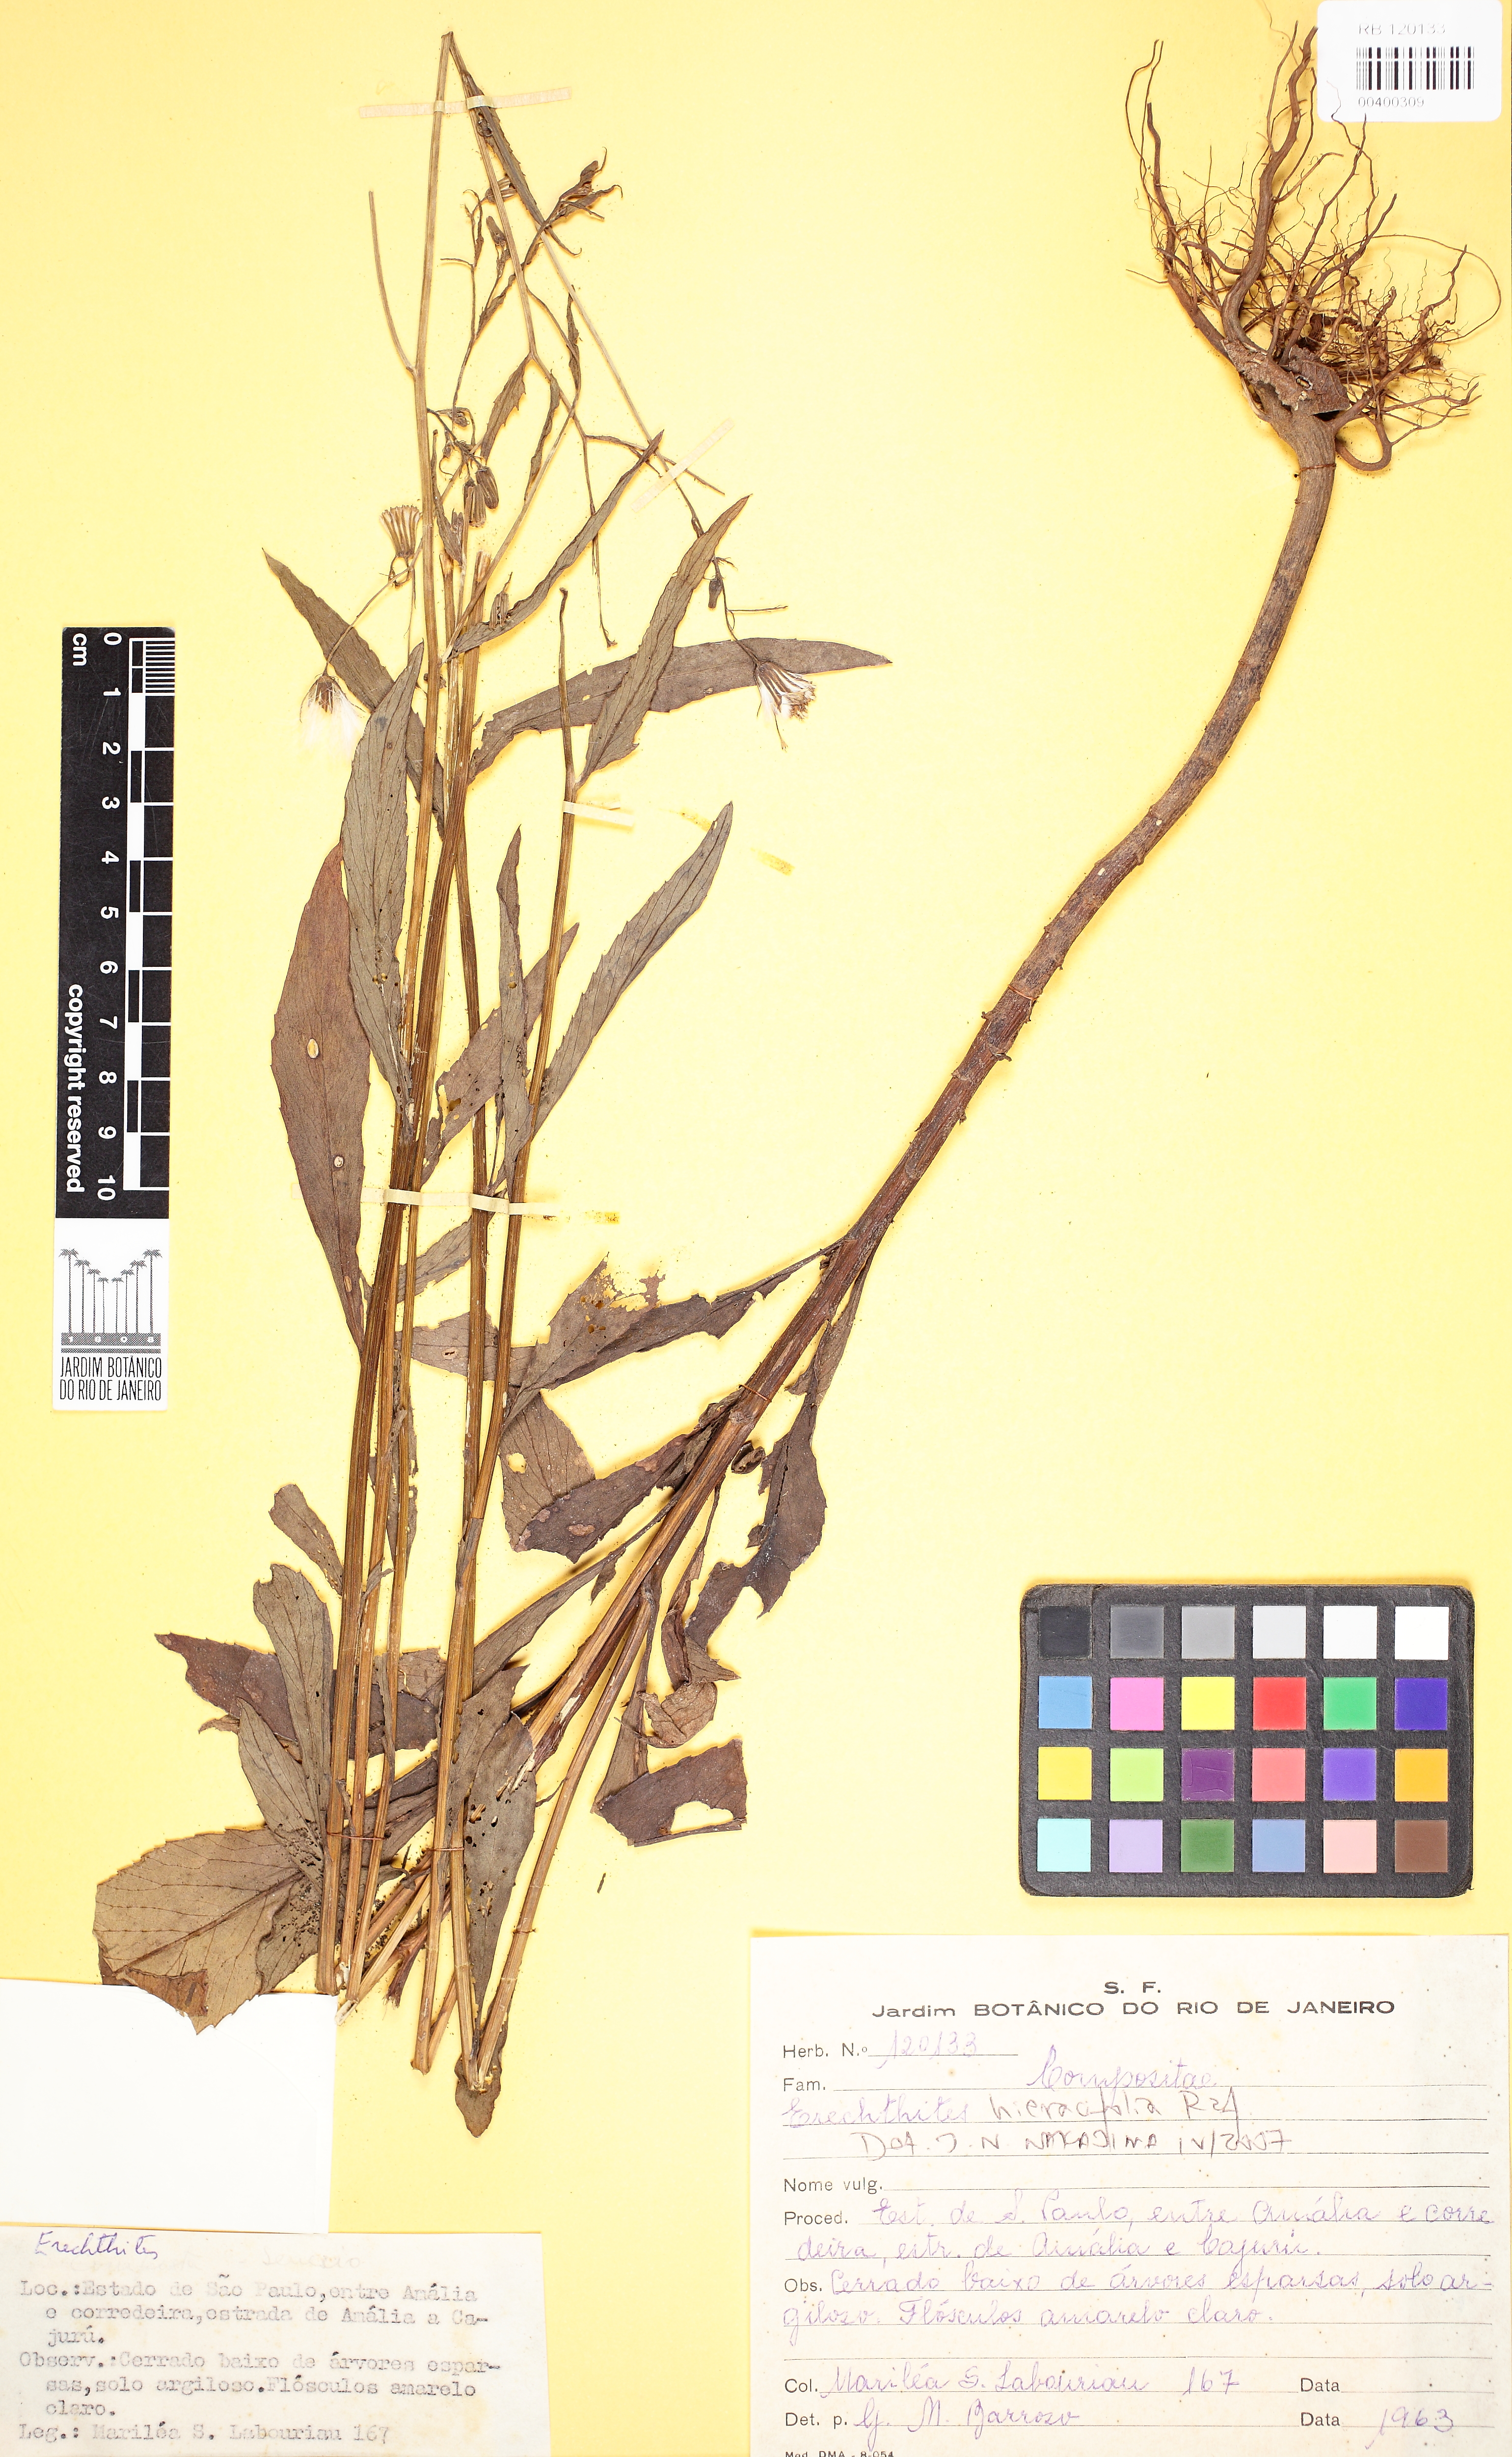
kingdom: Plantae
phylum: Tracheophyta
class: Magnoliopsida
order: Asterales
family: Asteraceae
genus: Erechtites
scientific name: Erechtites hieraciifolius
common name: American burnweed
